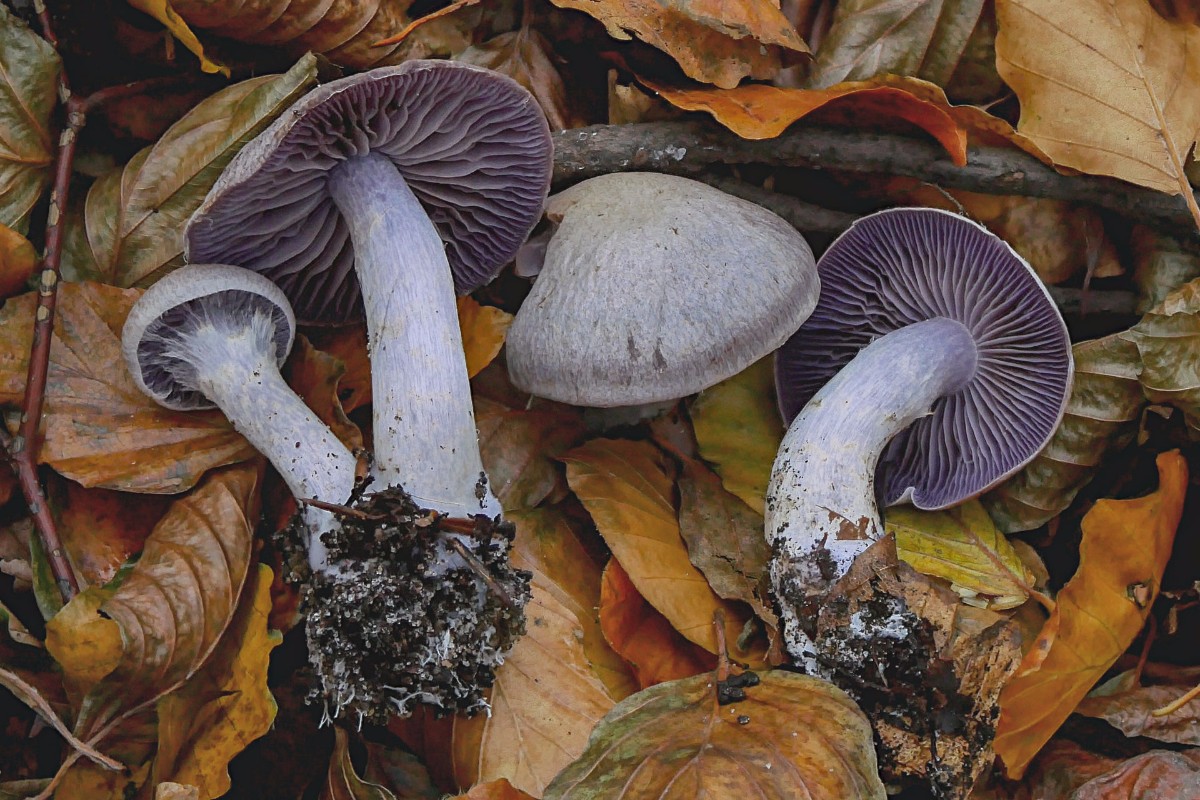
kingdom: Fungi
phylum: Basidiomycota
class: Agaricomycetes
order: Agaricales
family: Cortinariaceae
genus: Cortinarius
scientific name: Cortinarius
